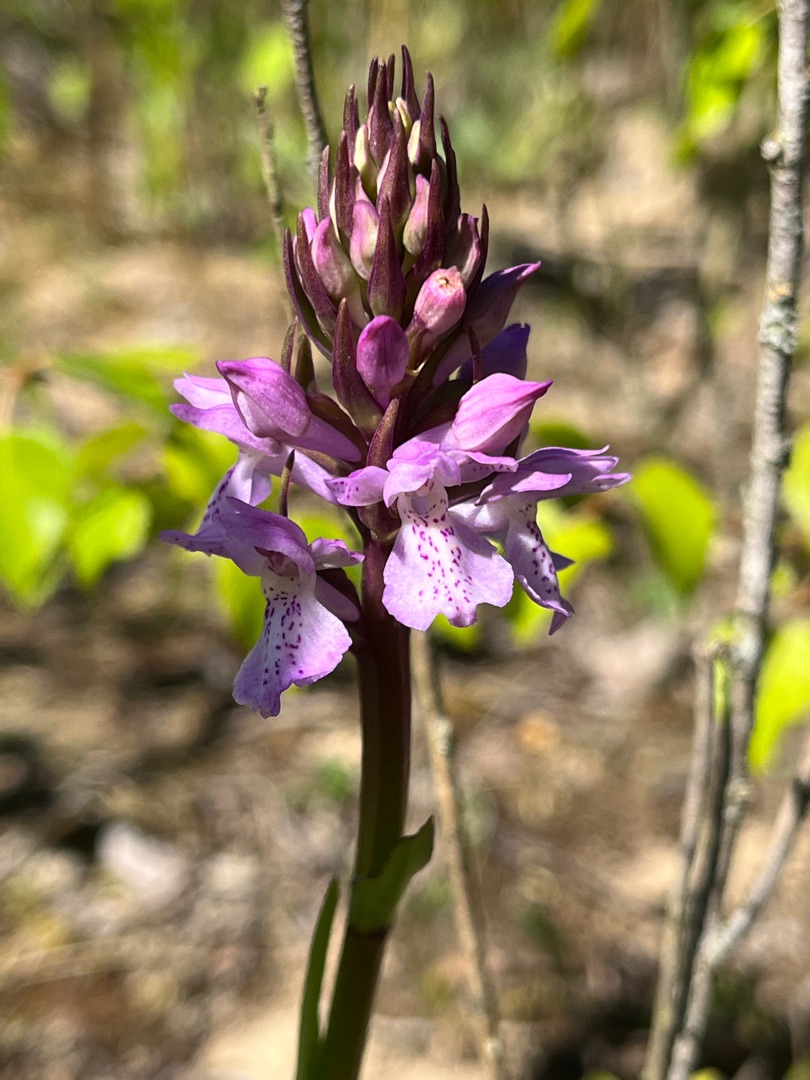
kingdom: Plantae
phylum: Tracheophyta
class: Liliopsida
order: Asparagales
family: Orchidaceae
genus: Dactylorhiza
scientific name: Dactylorhiza majalis
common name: Priklæbet gøgeurt
